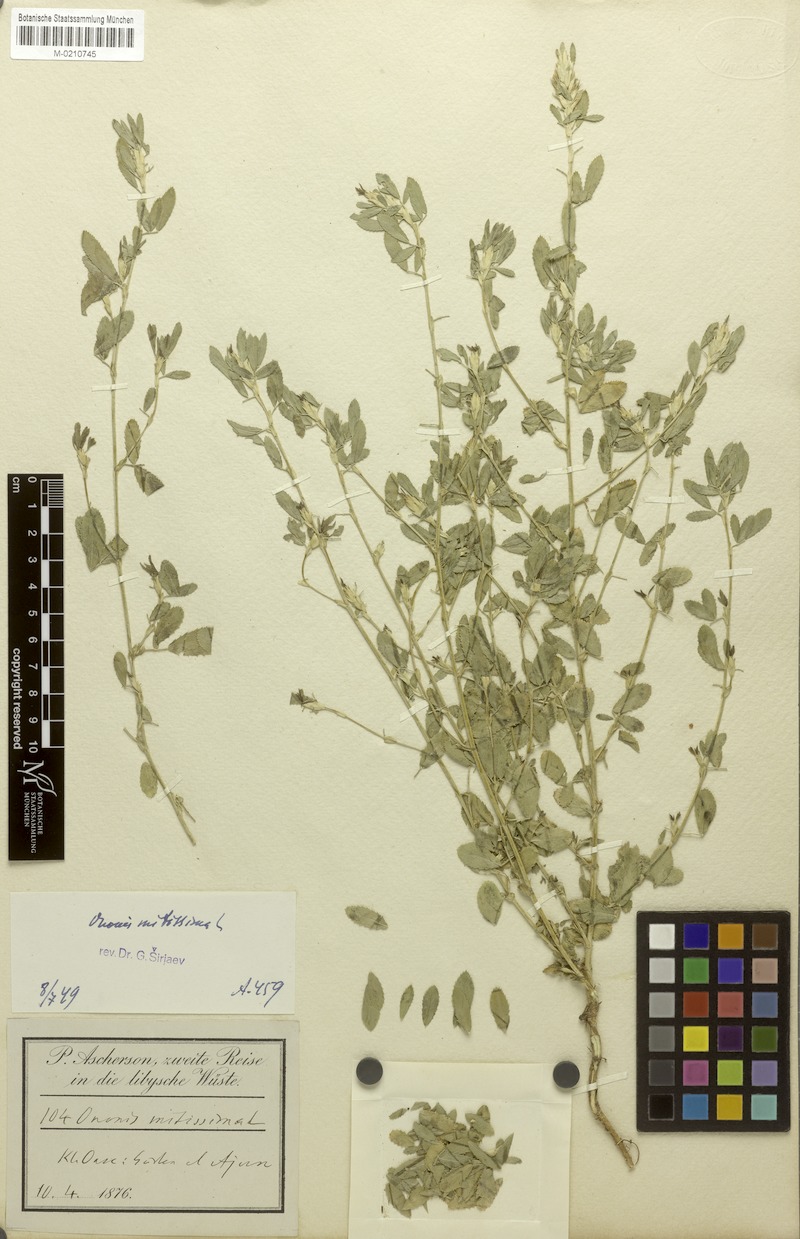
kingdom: Plantae
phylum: Tracheophyta
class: Magnoliopsida
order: Fabales
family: Fabaceae
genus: Ononis
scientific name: Ononis mitissima
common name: Mediterranean restharrow
